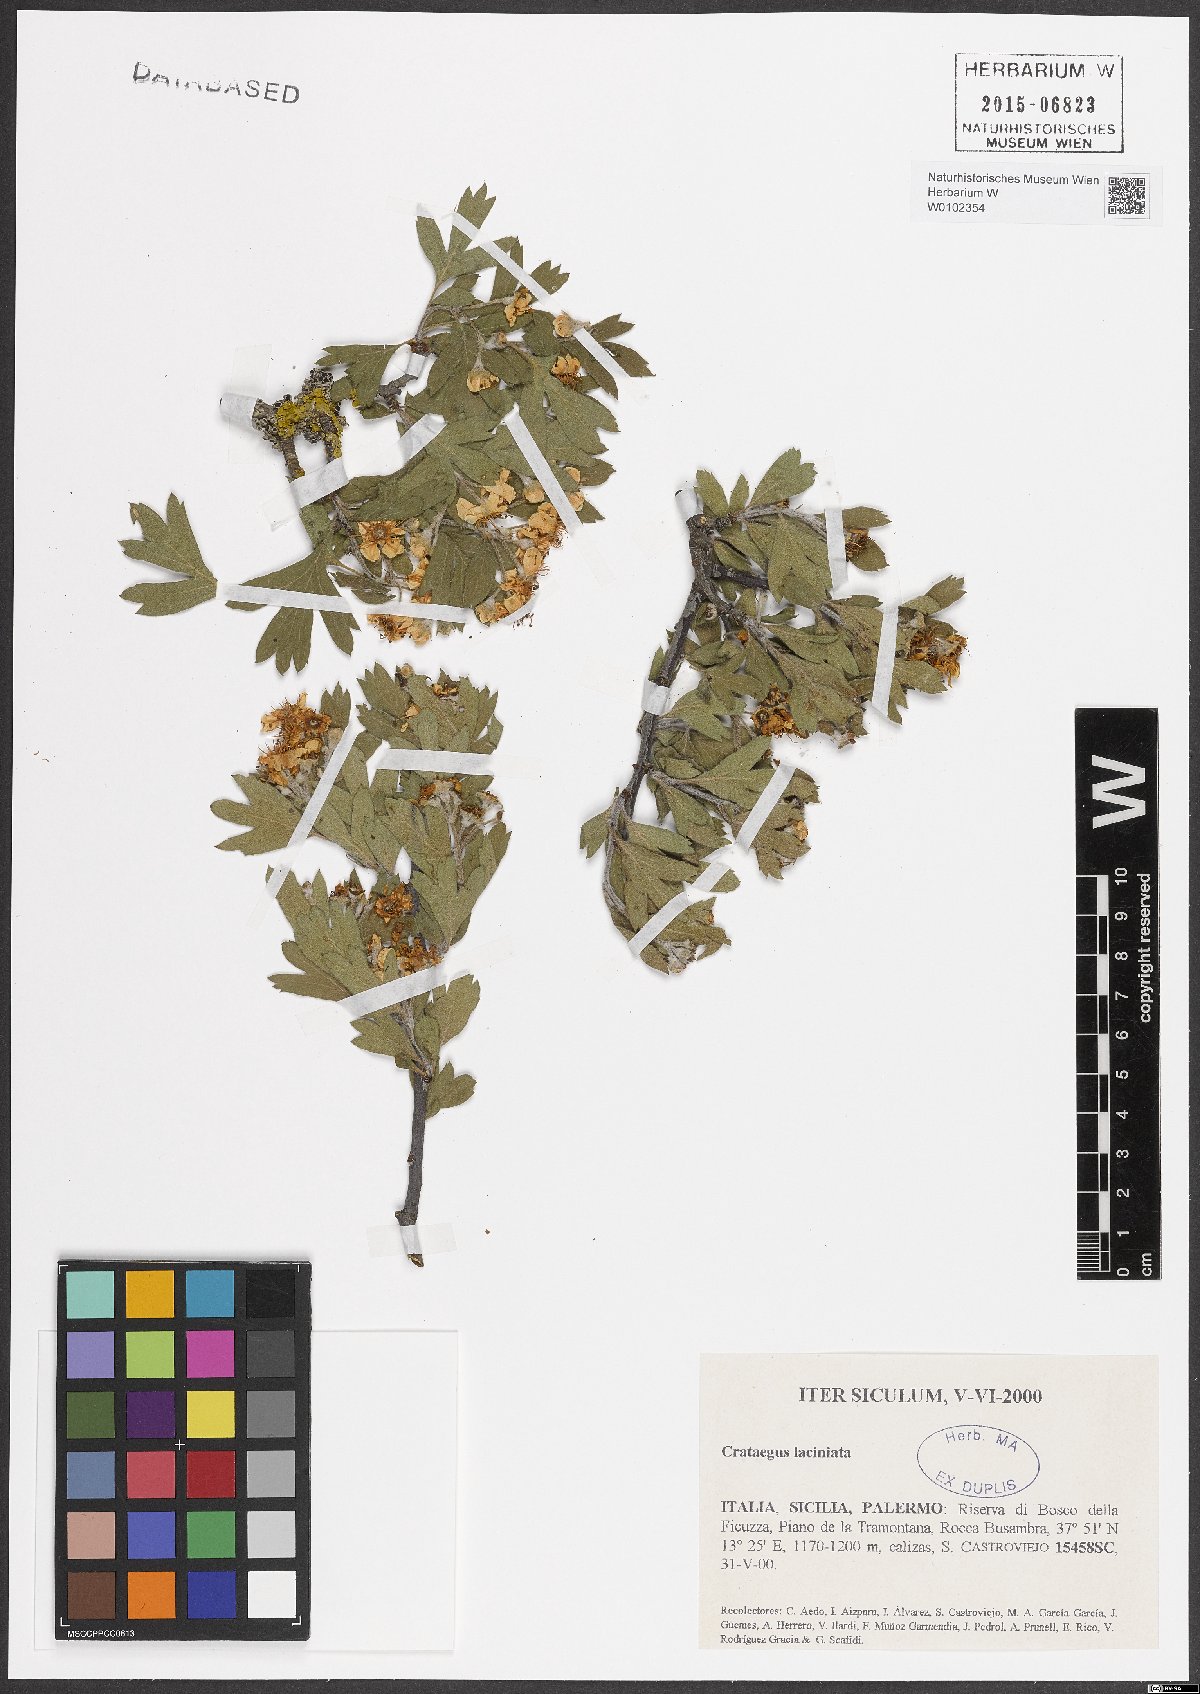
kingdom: Plantae
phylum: Tracheophyta
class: Magnoliopsida
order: Rosales
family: Rosaceae
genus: Crataegus
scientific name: Crataegus laciniata
